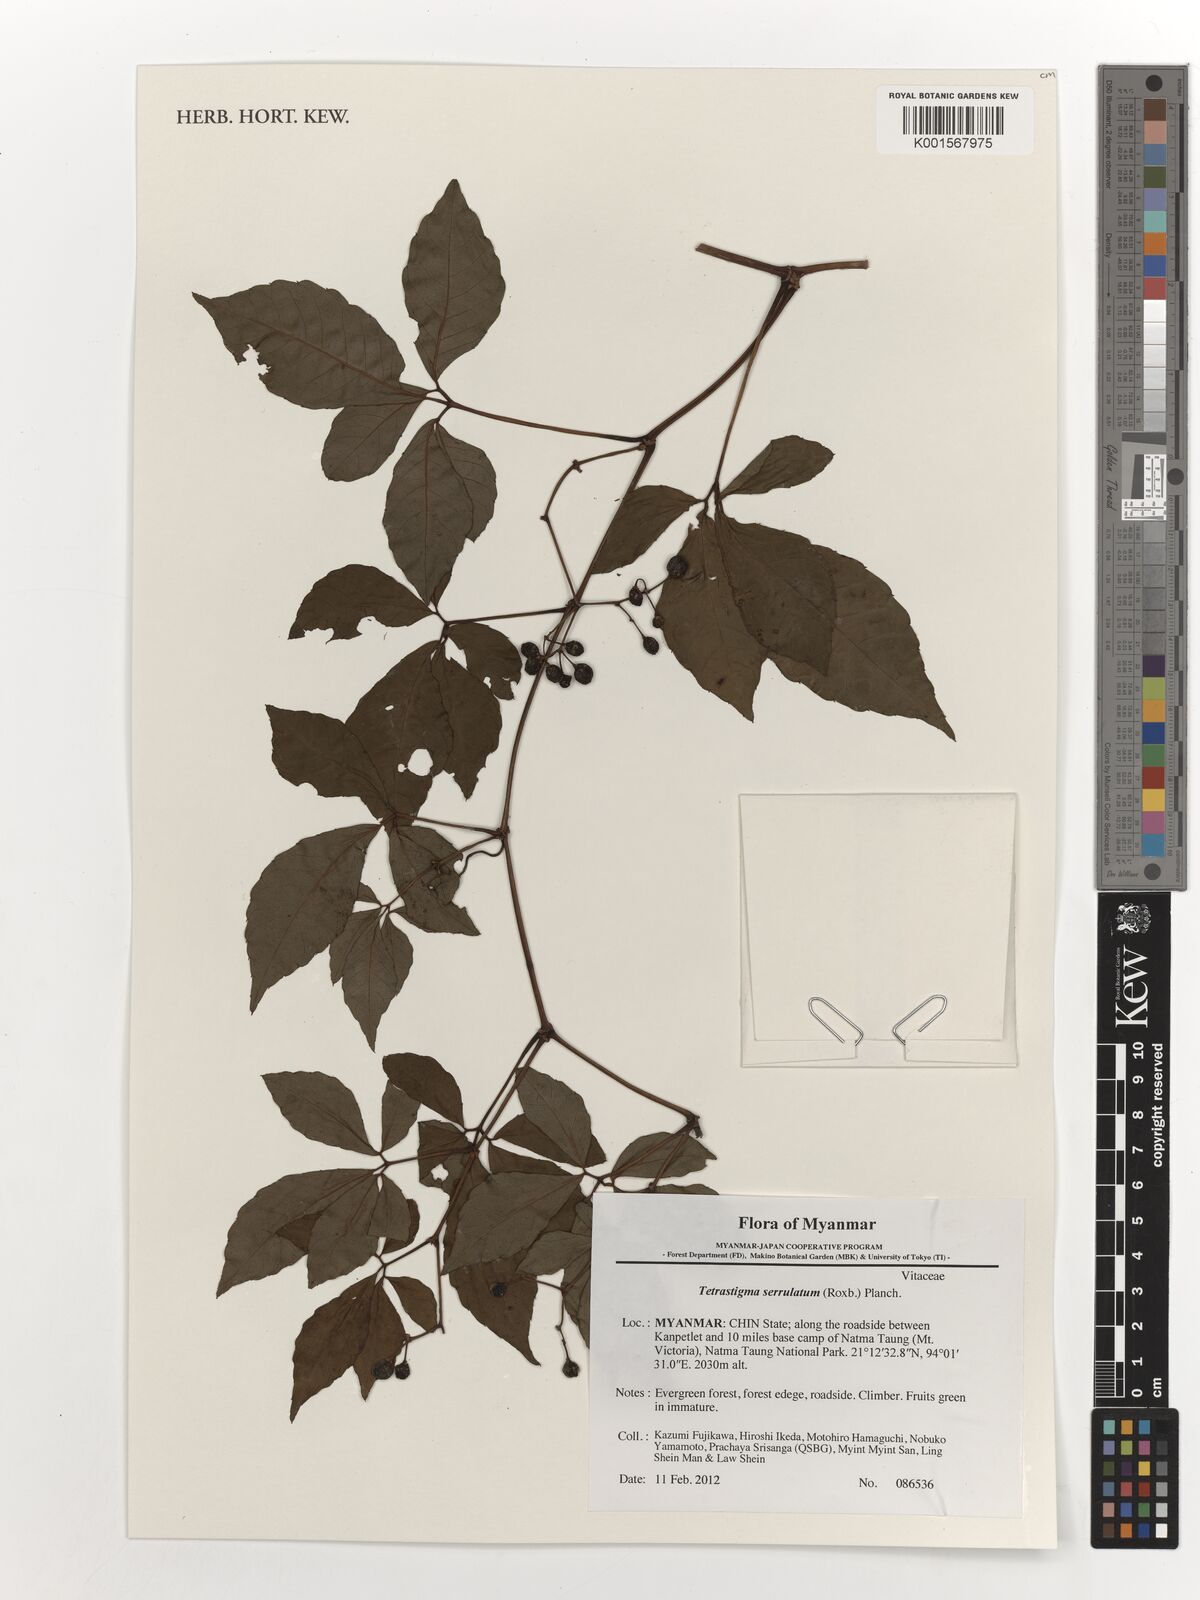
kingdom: Plantae
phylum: Tracheophyta
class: Magnoliopsida
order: Vitales
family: Vitaceae
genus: Tetrastigma
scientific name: Tetrastigma serrulatum
